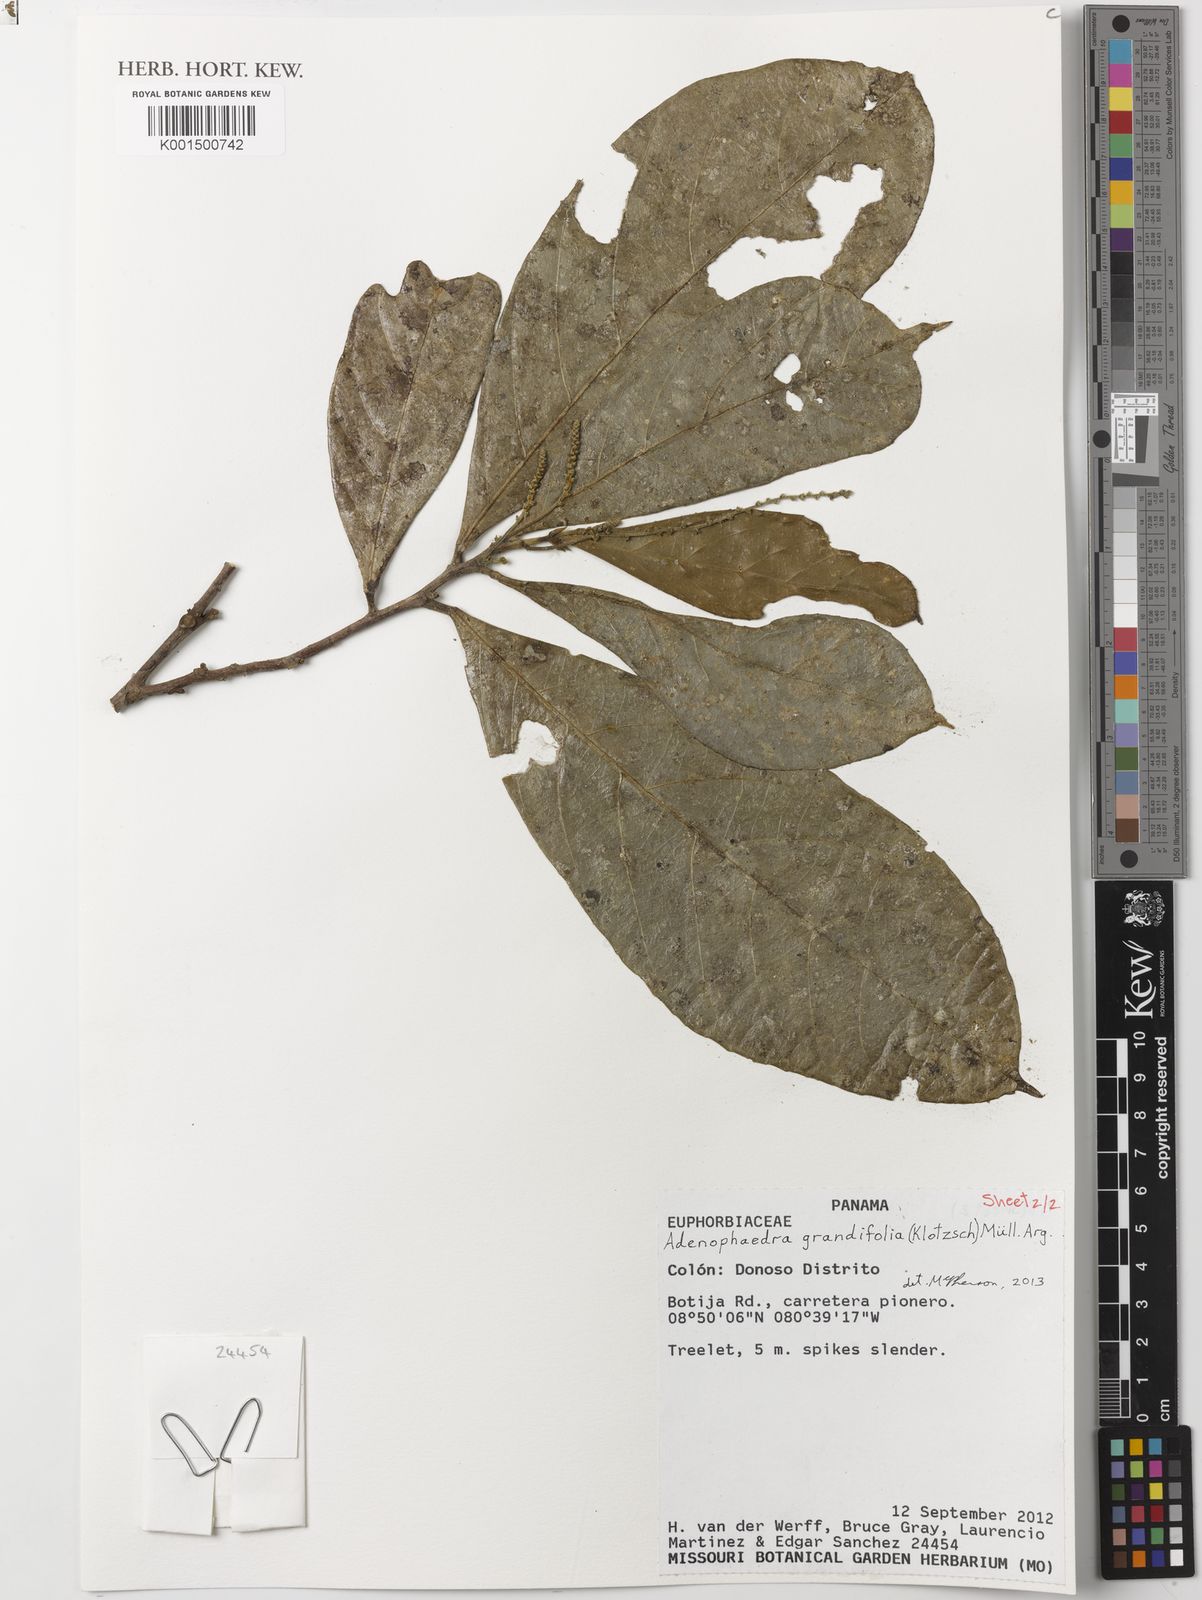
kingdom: Plantae
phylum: Tracheophyta
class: Magnoliopsida
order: Malpighiales
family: Euphorbiaceae
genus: Adenophaedra
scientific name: Adenophaedra grandifolia
